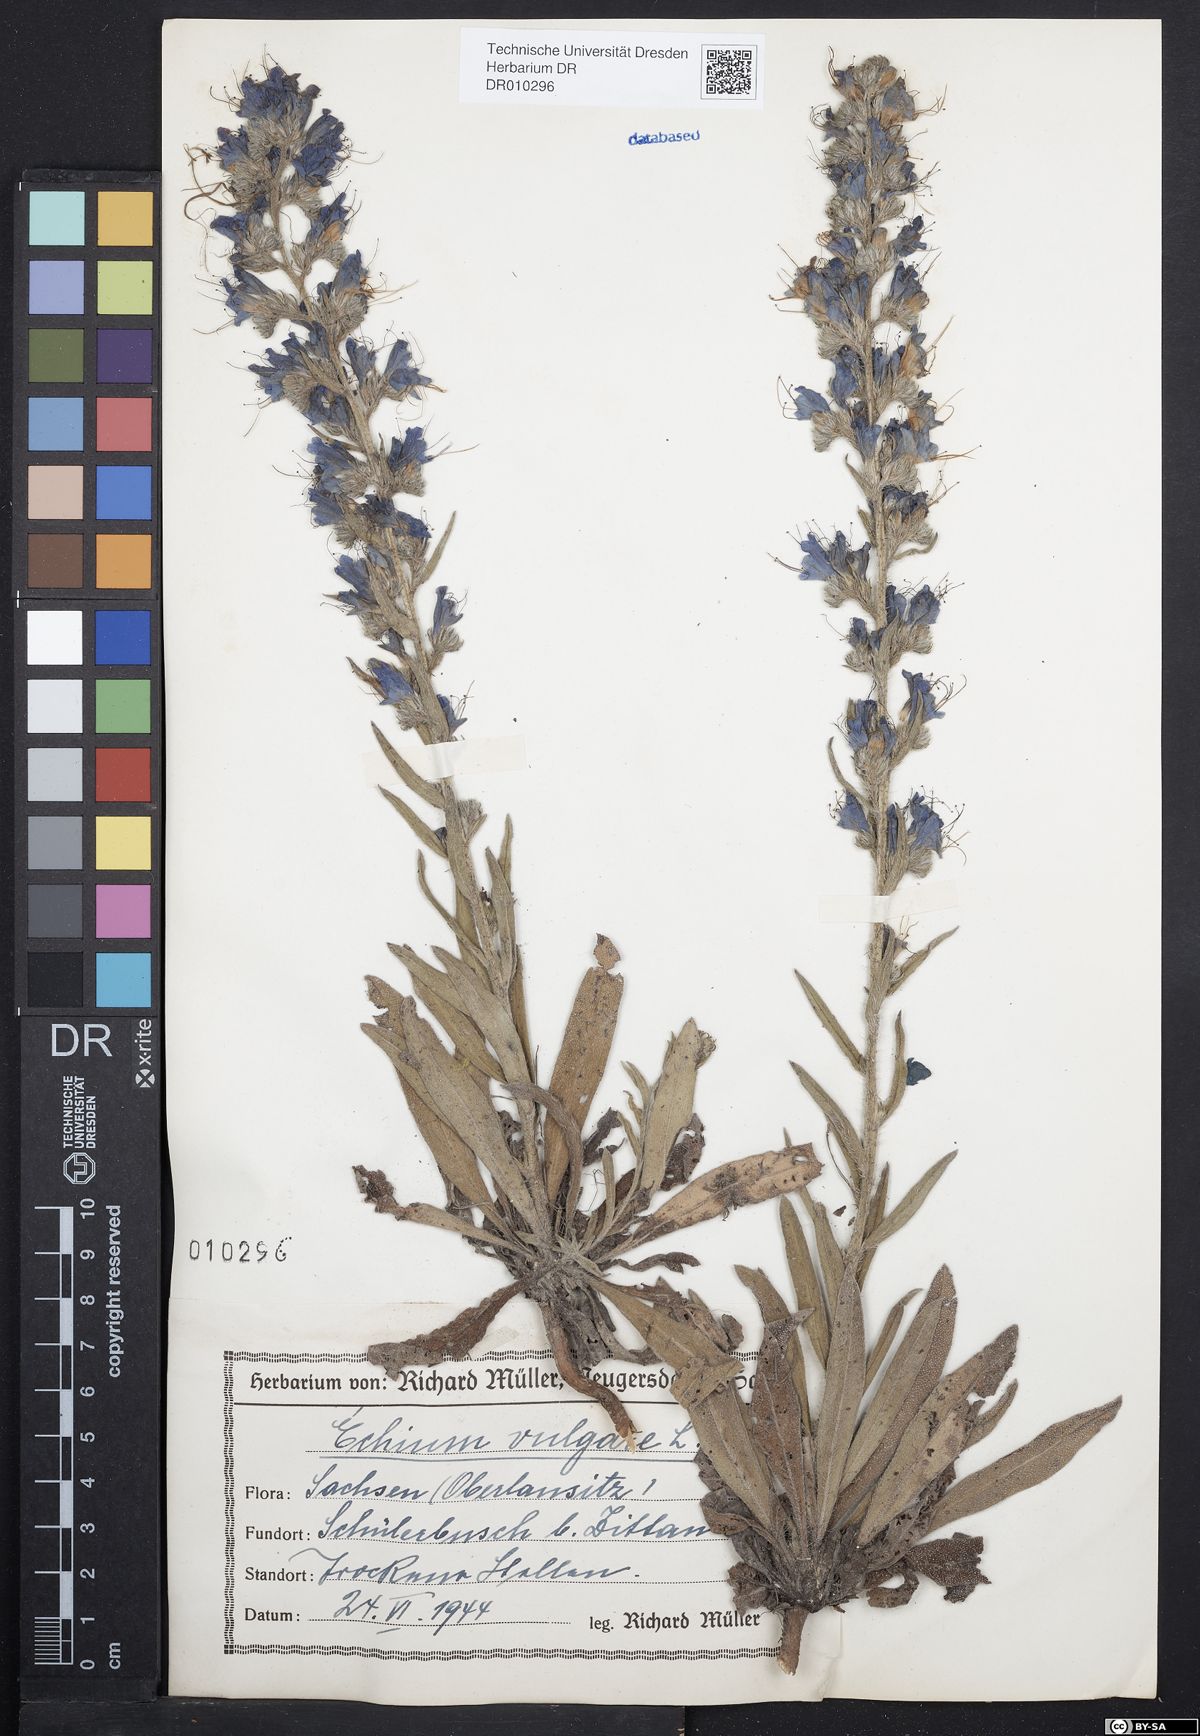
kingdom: Plantae
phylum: Tracheophyta
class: Magnoliopsida
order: Boraginales
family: Boraginaceae
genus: Echium
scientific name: Echium vulgare
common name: Common viper's bugloss
